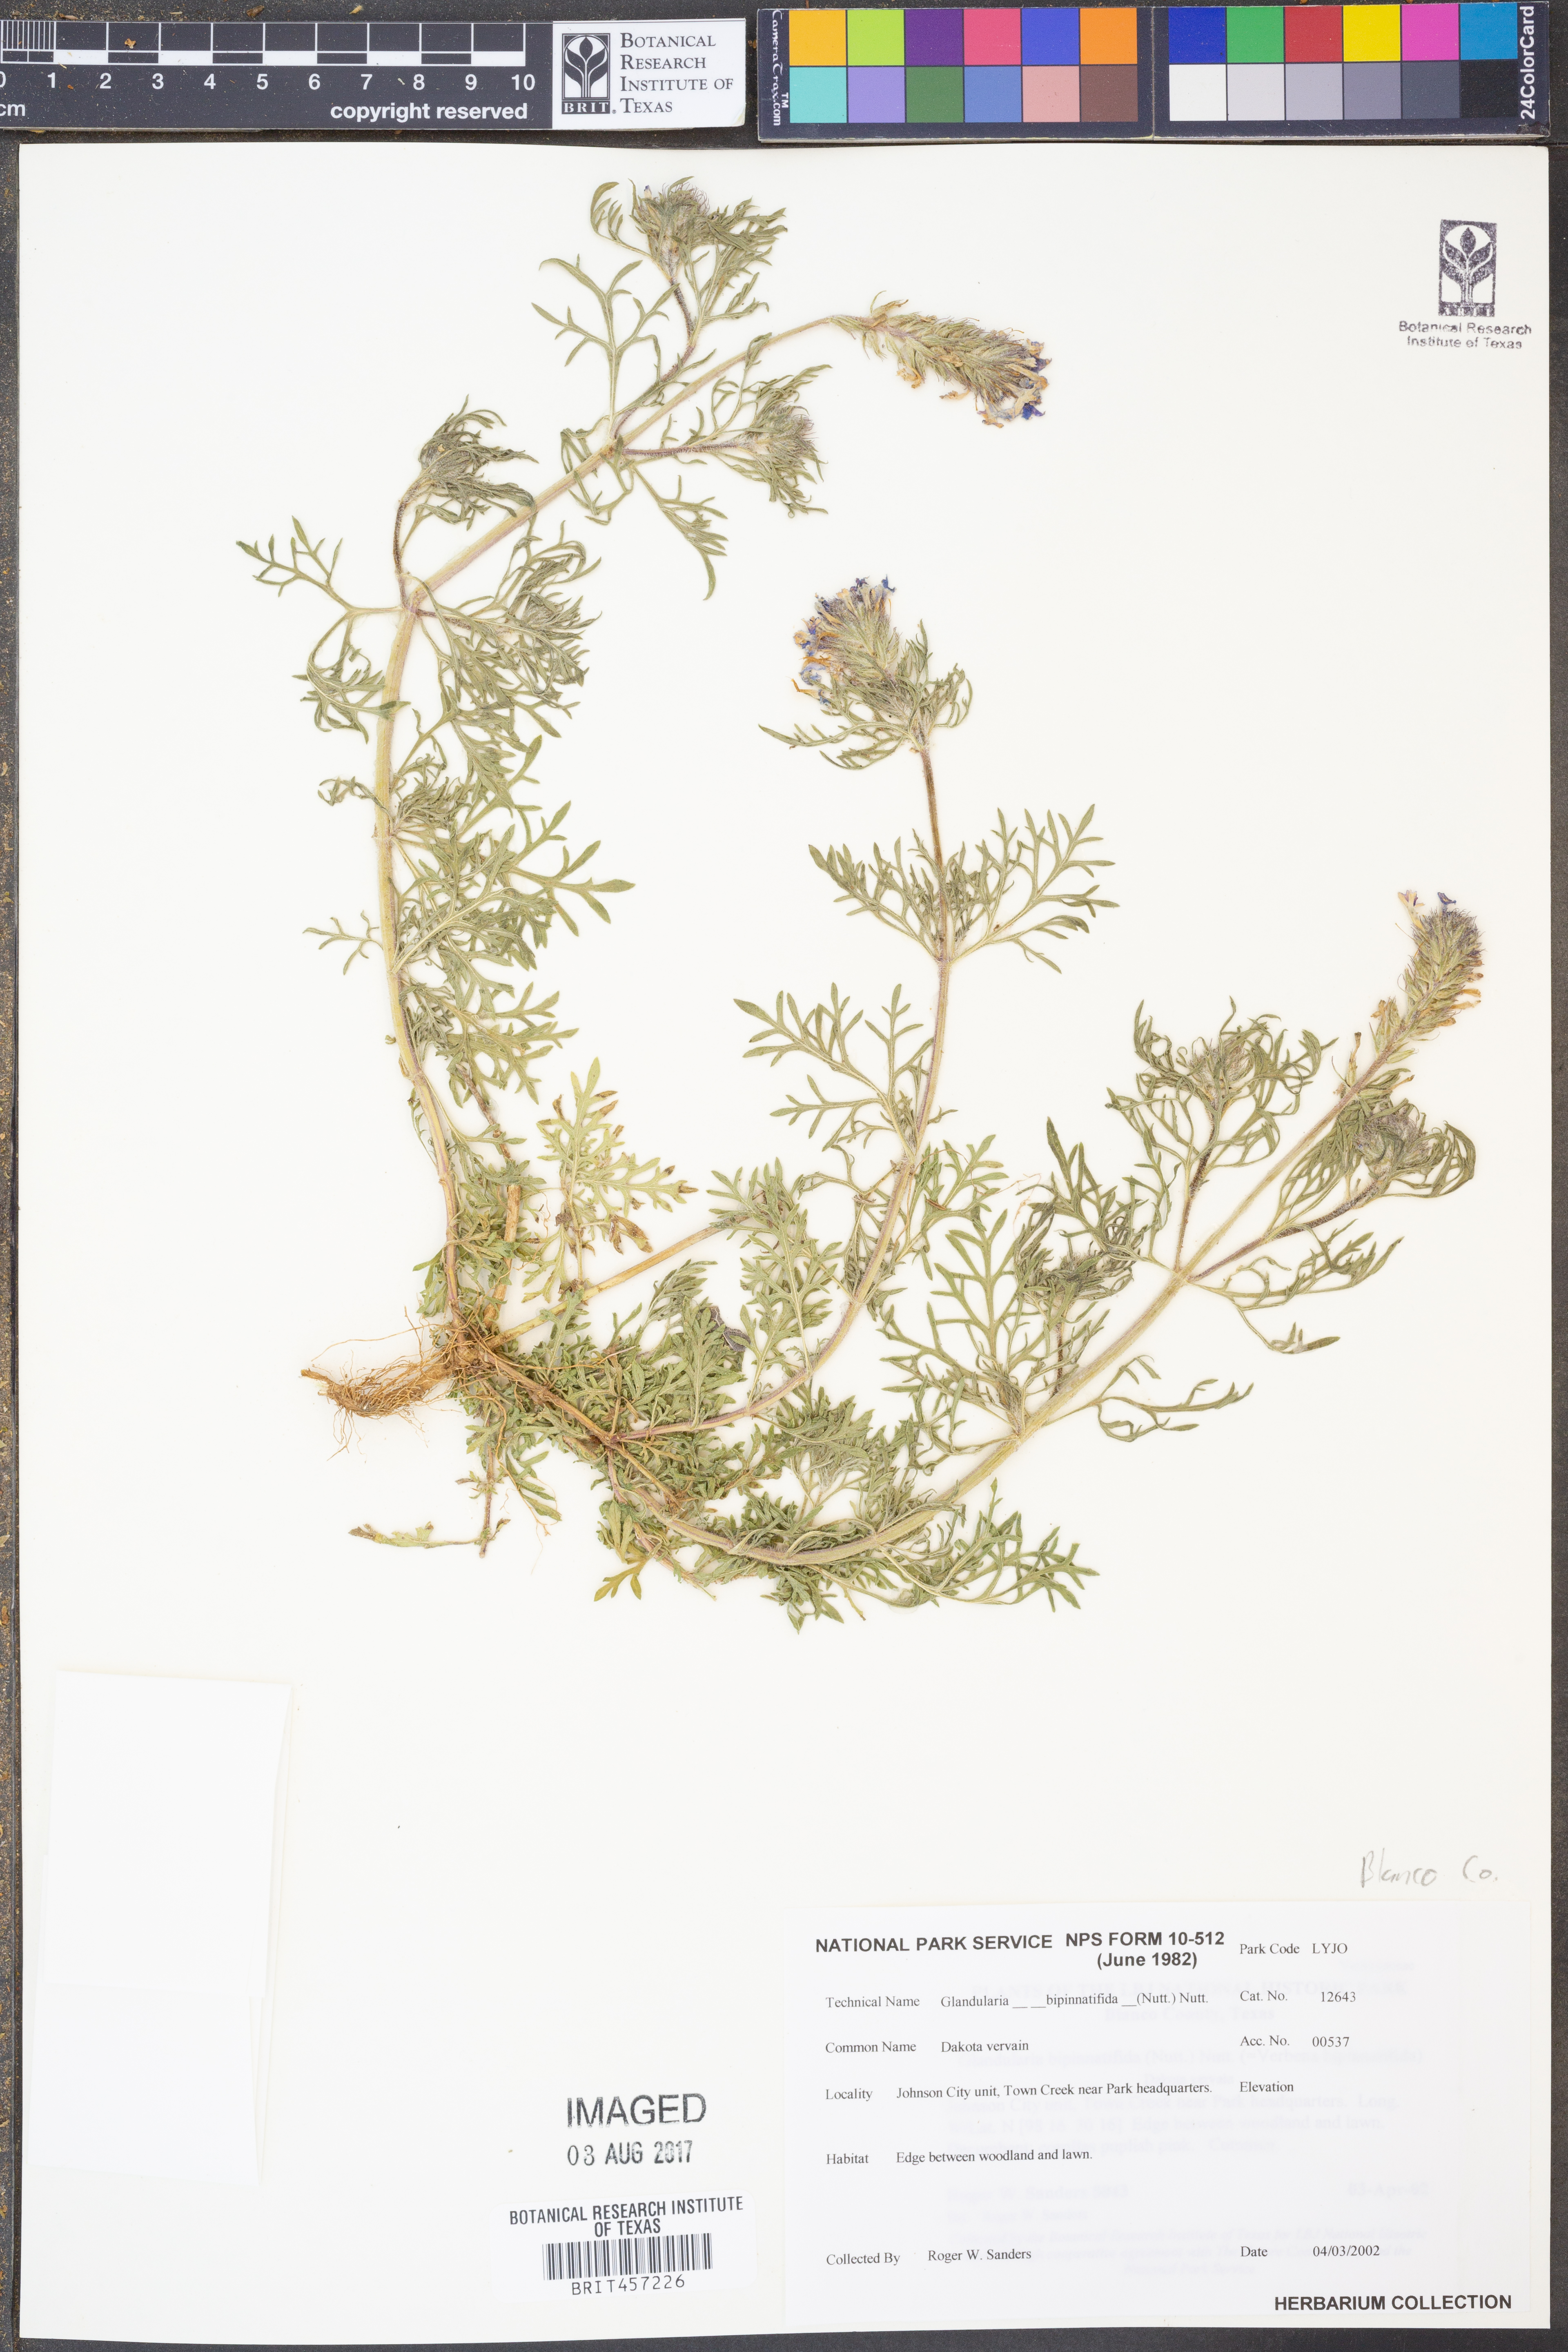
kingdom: Plantae
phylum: Tracheophyta
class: Magnoliopsida
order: Lamiales
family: Verbenaceae
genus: Verbena
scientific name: Verbena bipinnatifida
